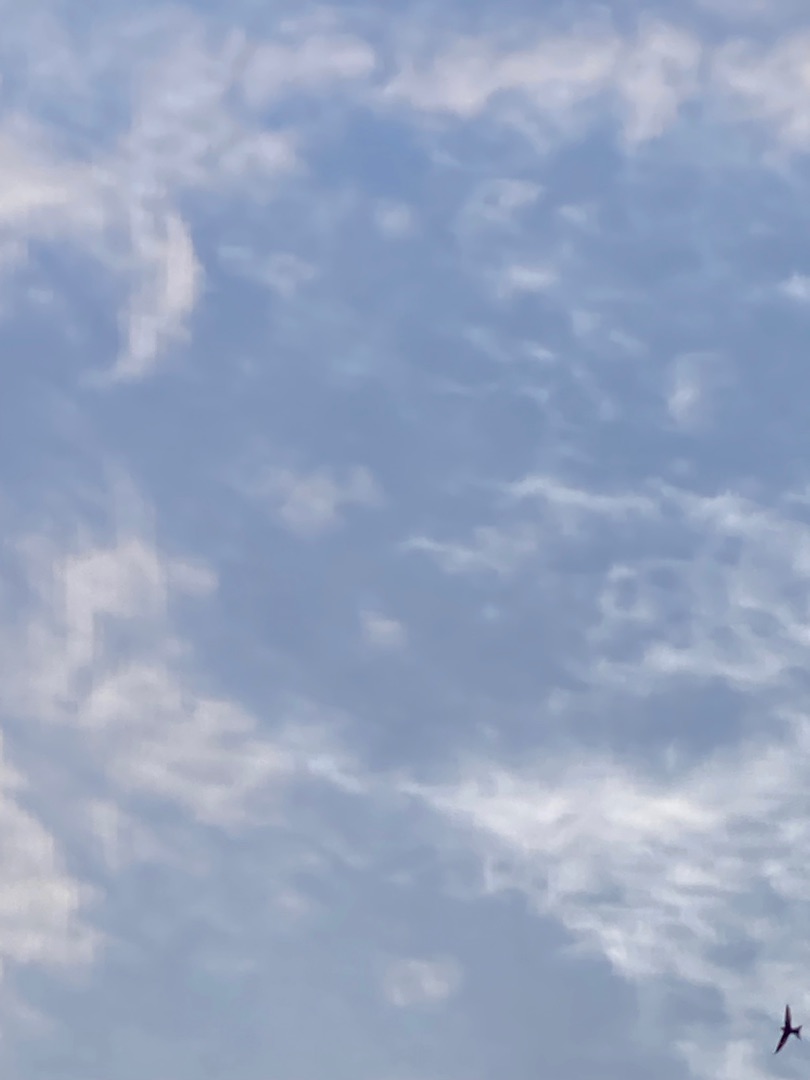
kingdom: Animalia
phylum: Chordata
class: Aves
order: Apodiformes
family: Apodidae
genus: Apus
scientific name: Apus apus
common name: Mursejler
